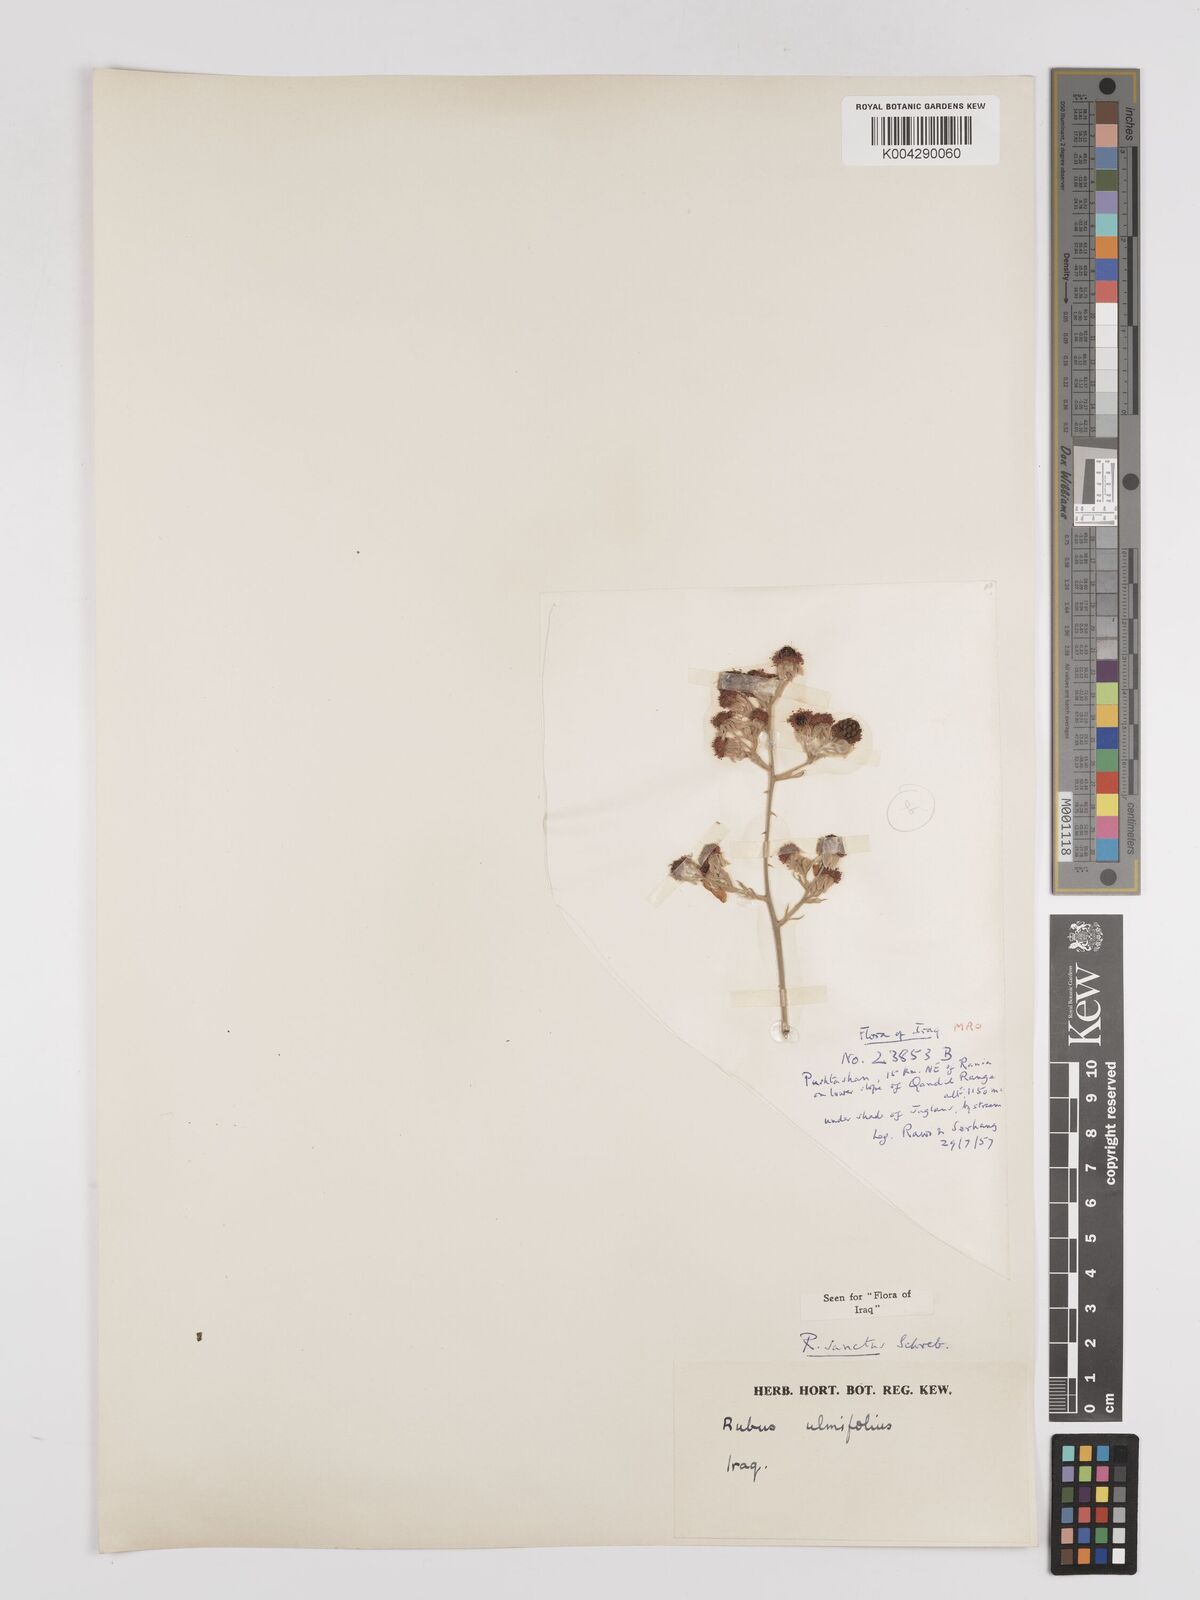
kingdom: Plantae
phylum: Tracheophyta
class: Magnoliopsida
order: Rosales
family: Rosaceae
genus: Rubus
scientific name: Rubus sanctus
